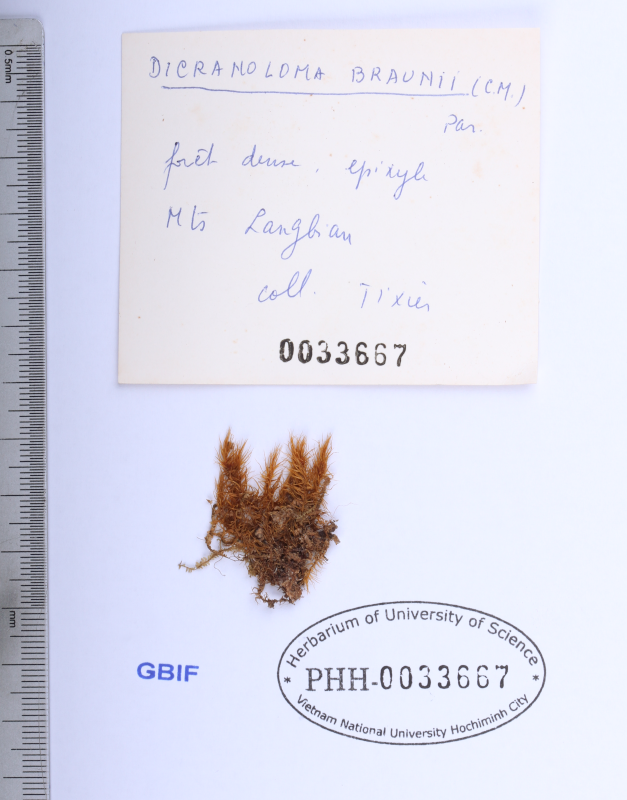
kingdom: Plantae
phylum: Bryophyta
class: Bryopsida
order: Dicranales
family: Dicranaceae
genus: Dicranoloma
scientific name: Dicranoloma braunii
